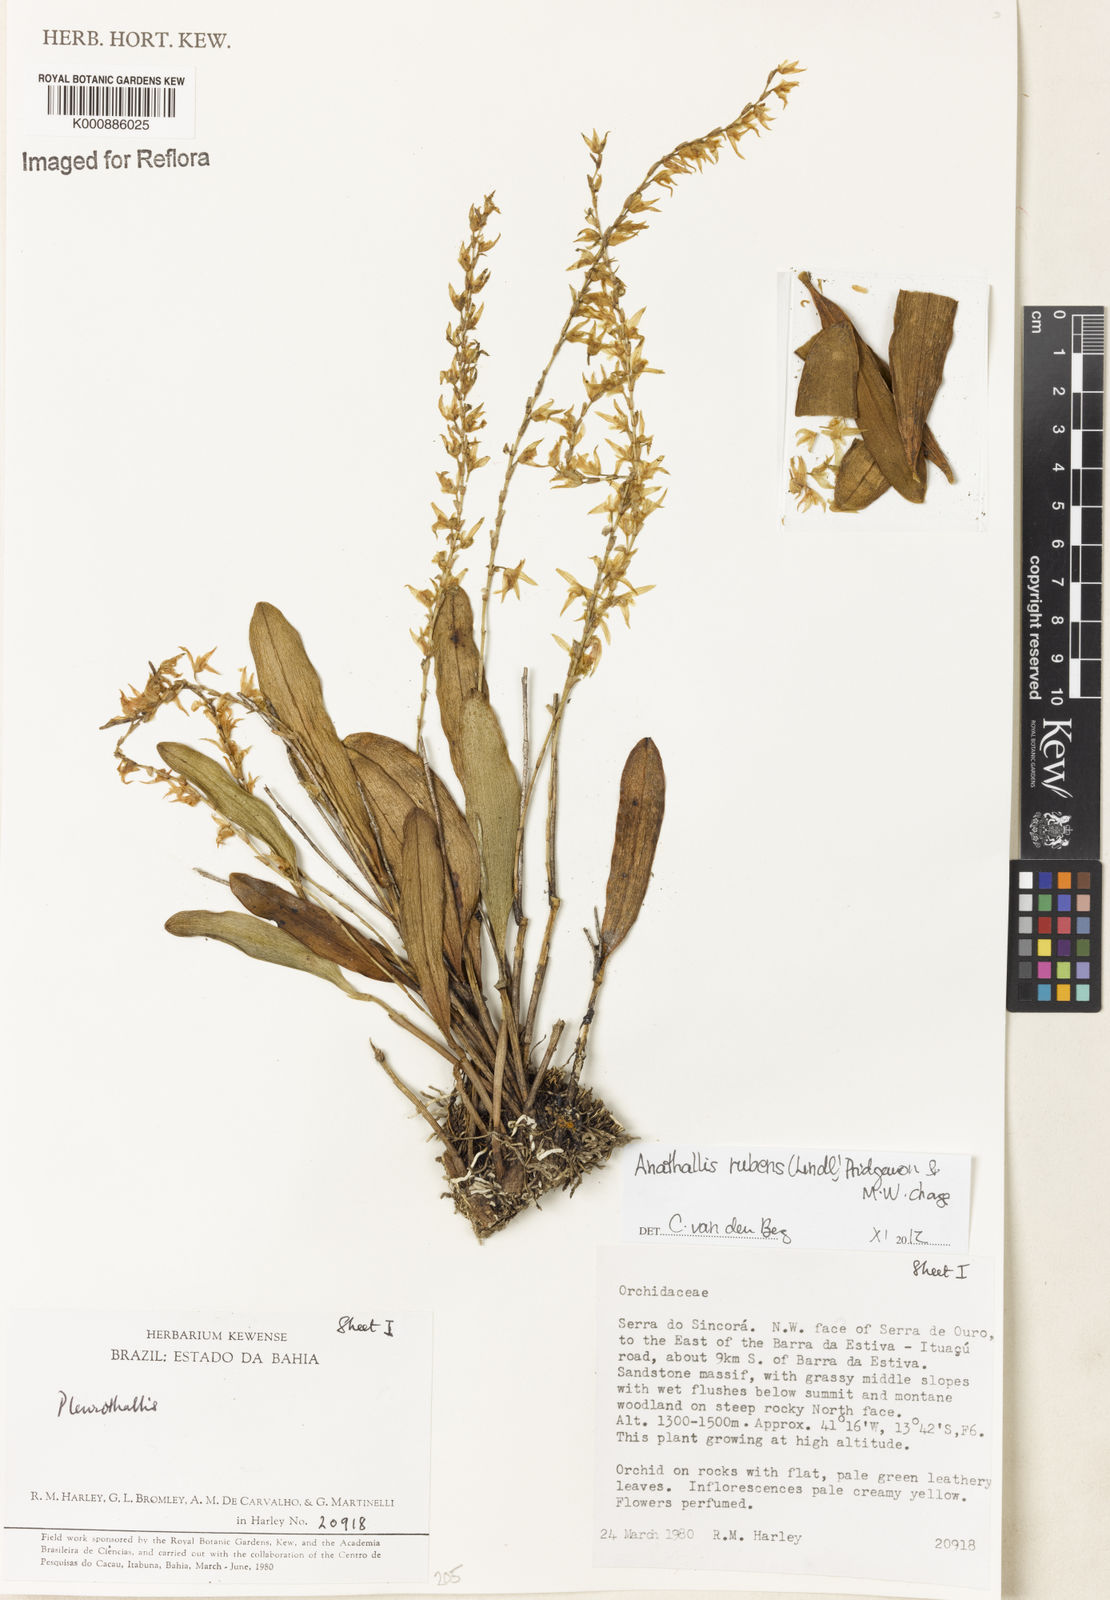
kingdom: Plantae
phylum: Tracheophyta
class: Liliopsida
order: Asparagales
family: Orchidaceae
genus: Stelis
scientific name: Stelis montserratii
